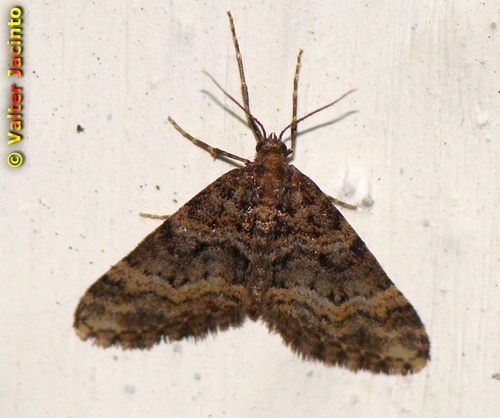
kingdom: Animalia
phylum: Arthropoda
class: Insecta
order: Lepidoptera
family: Geometridae
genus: Hospitalia
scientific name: Hospitalia flavolineata
